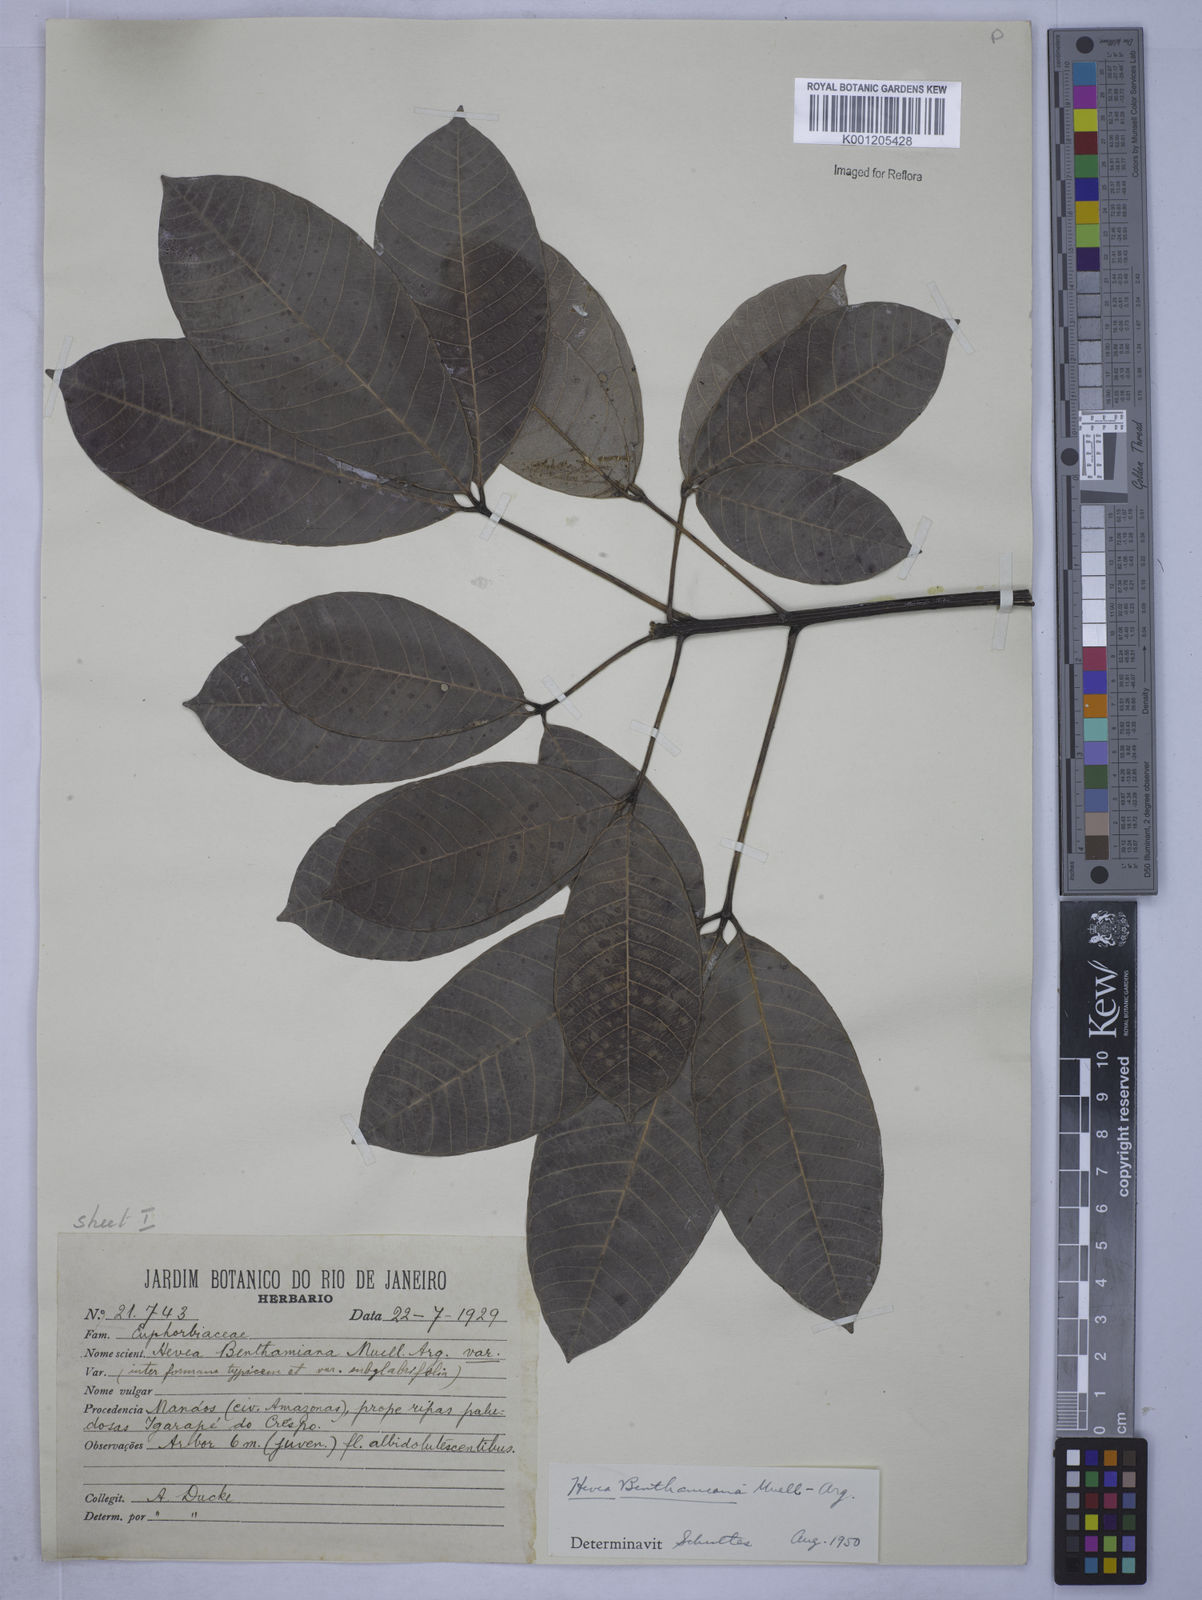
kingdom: Plantae
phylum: Tracheophyta
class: Magnoliopsida
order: Malpighiales
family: Euphorbiaceae
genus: Hevea
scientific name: Hevea
